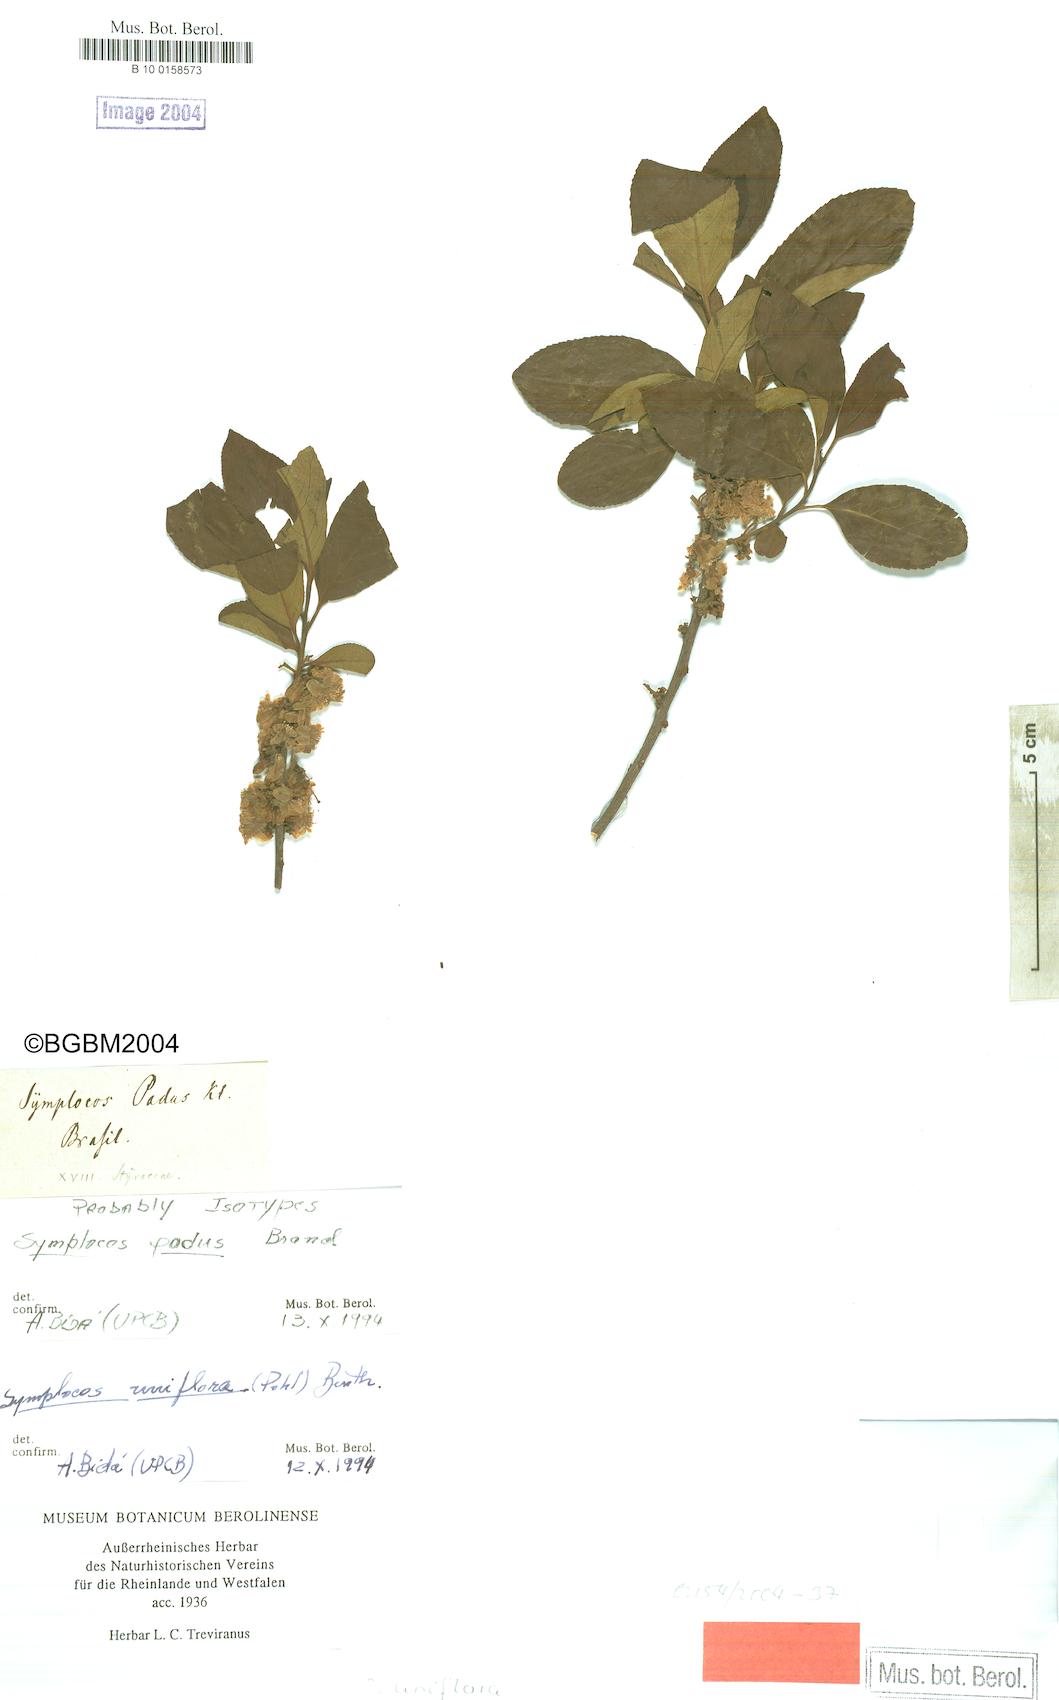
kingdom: Plantae
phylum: Tracheophyta
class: Magnoliopsida
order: Ericales
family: Symplocaceae
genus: Symplocos
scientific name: Symplocos uniflora
